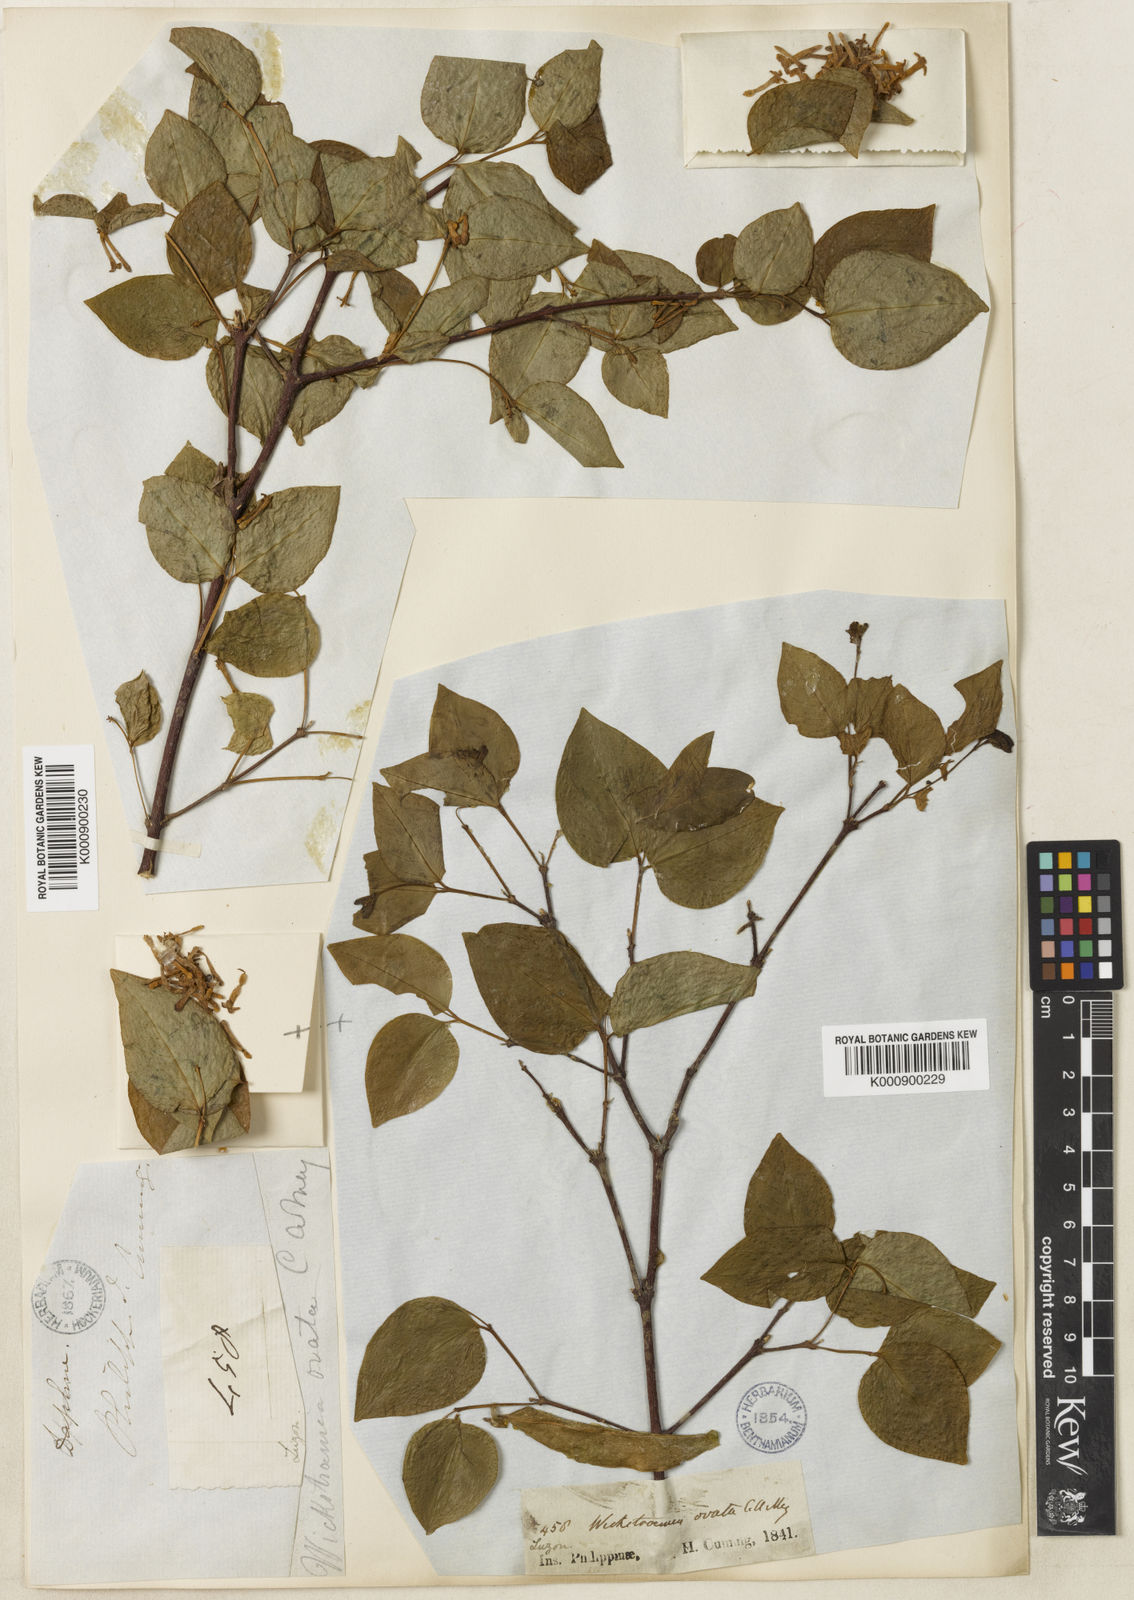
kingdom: Plantae
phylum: Tracheophyta
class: Magnoliopsida
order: Malvales
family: Thymelaeaceae
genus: Wikstroemia
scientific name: Wikstroemia ovata
